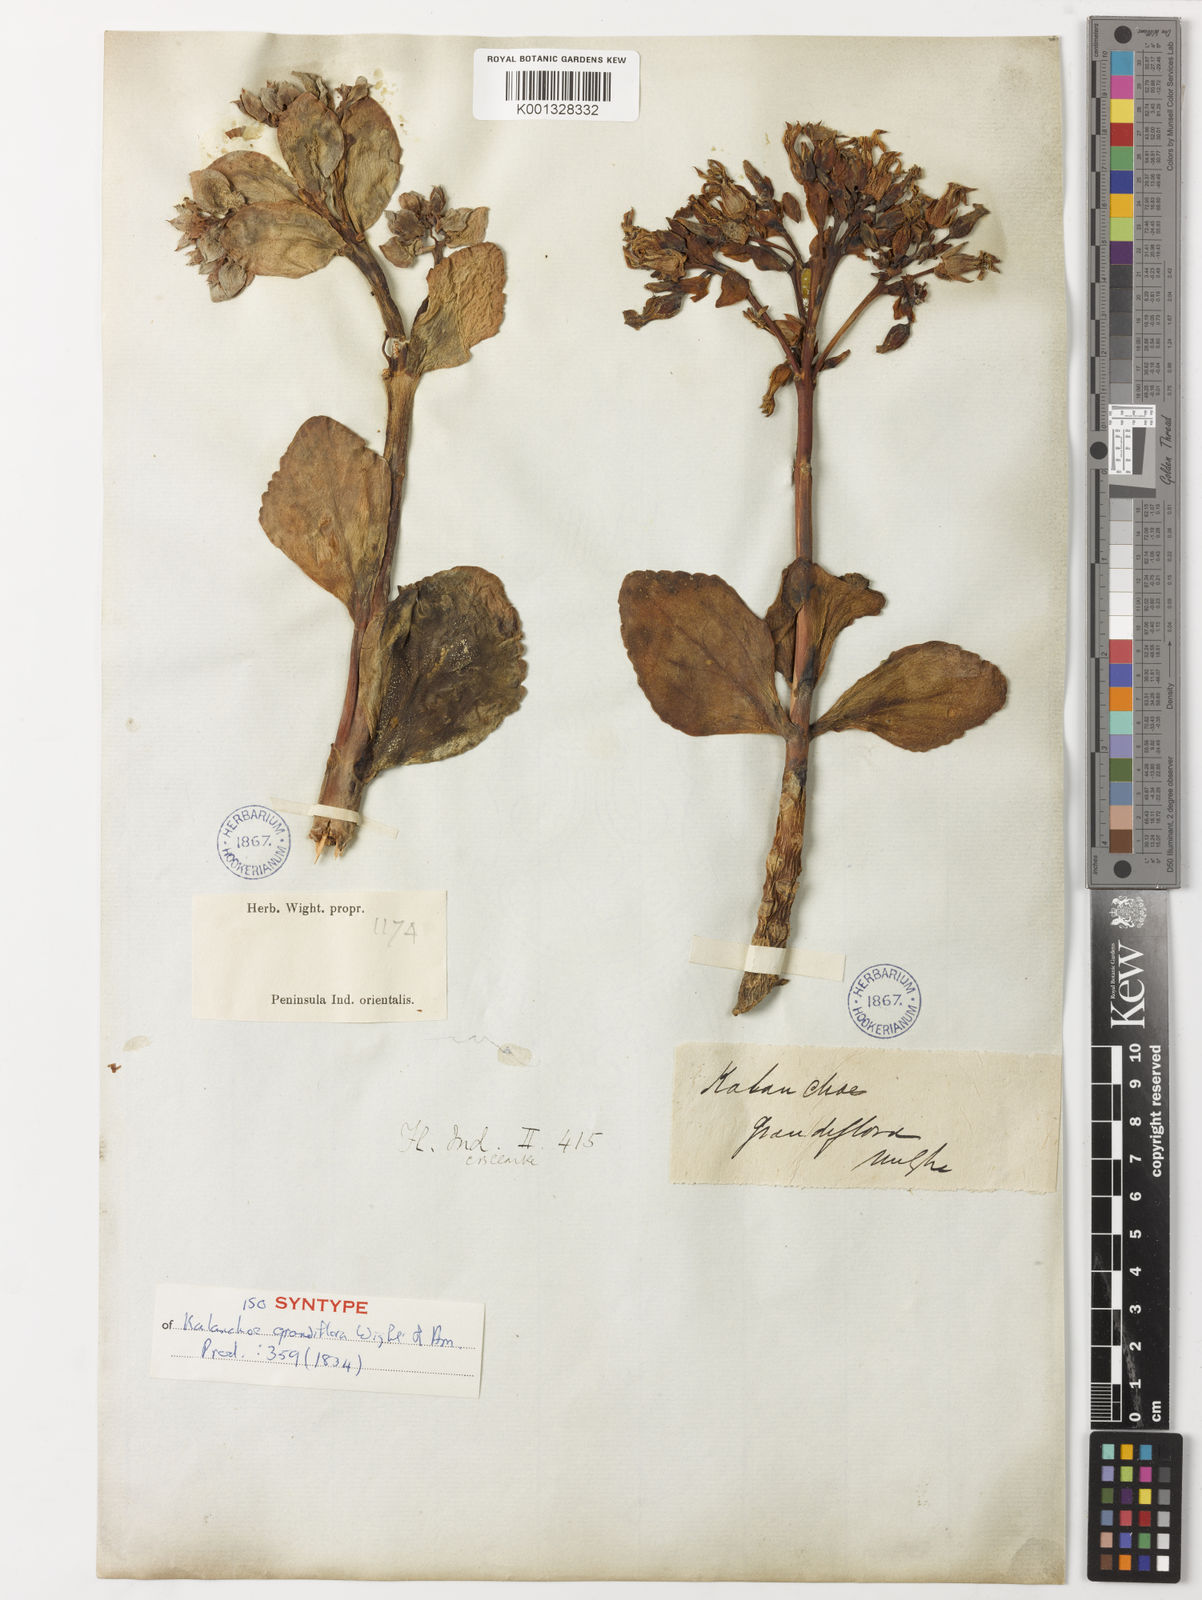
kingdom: Plantae
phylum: Tracheophyta
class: Magnoliopsida
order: Saxifragales
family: Crassulaceae
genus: Kalanchoe
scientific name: Kalanchoe grandiflora
